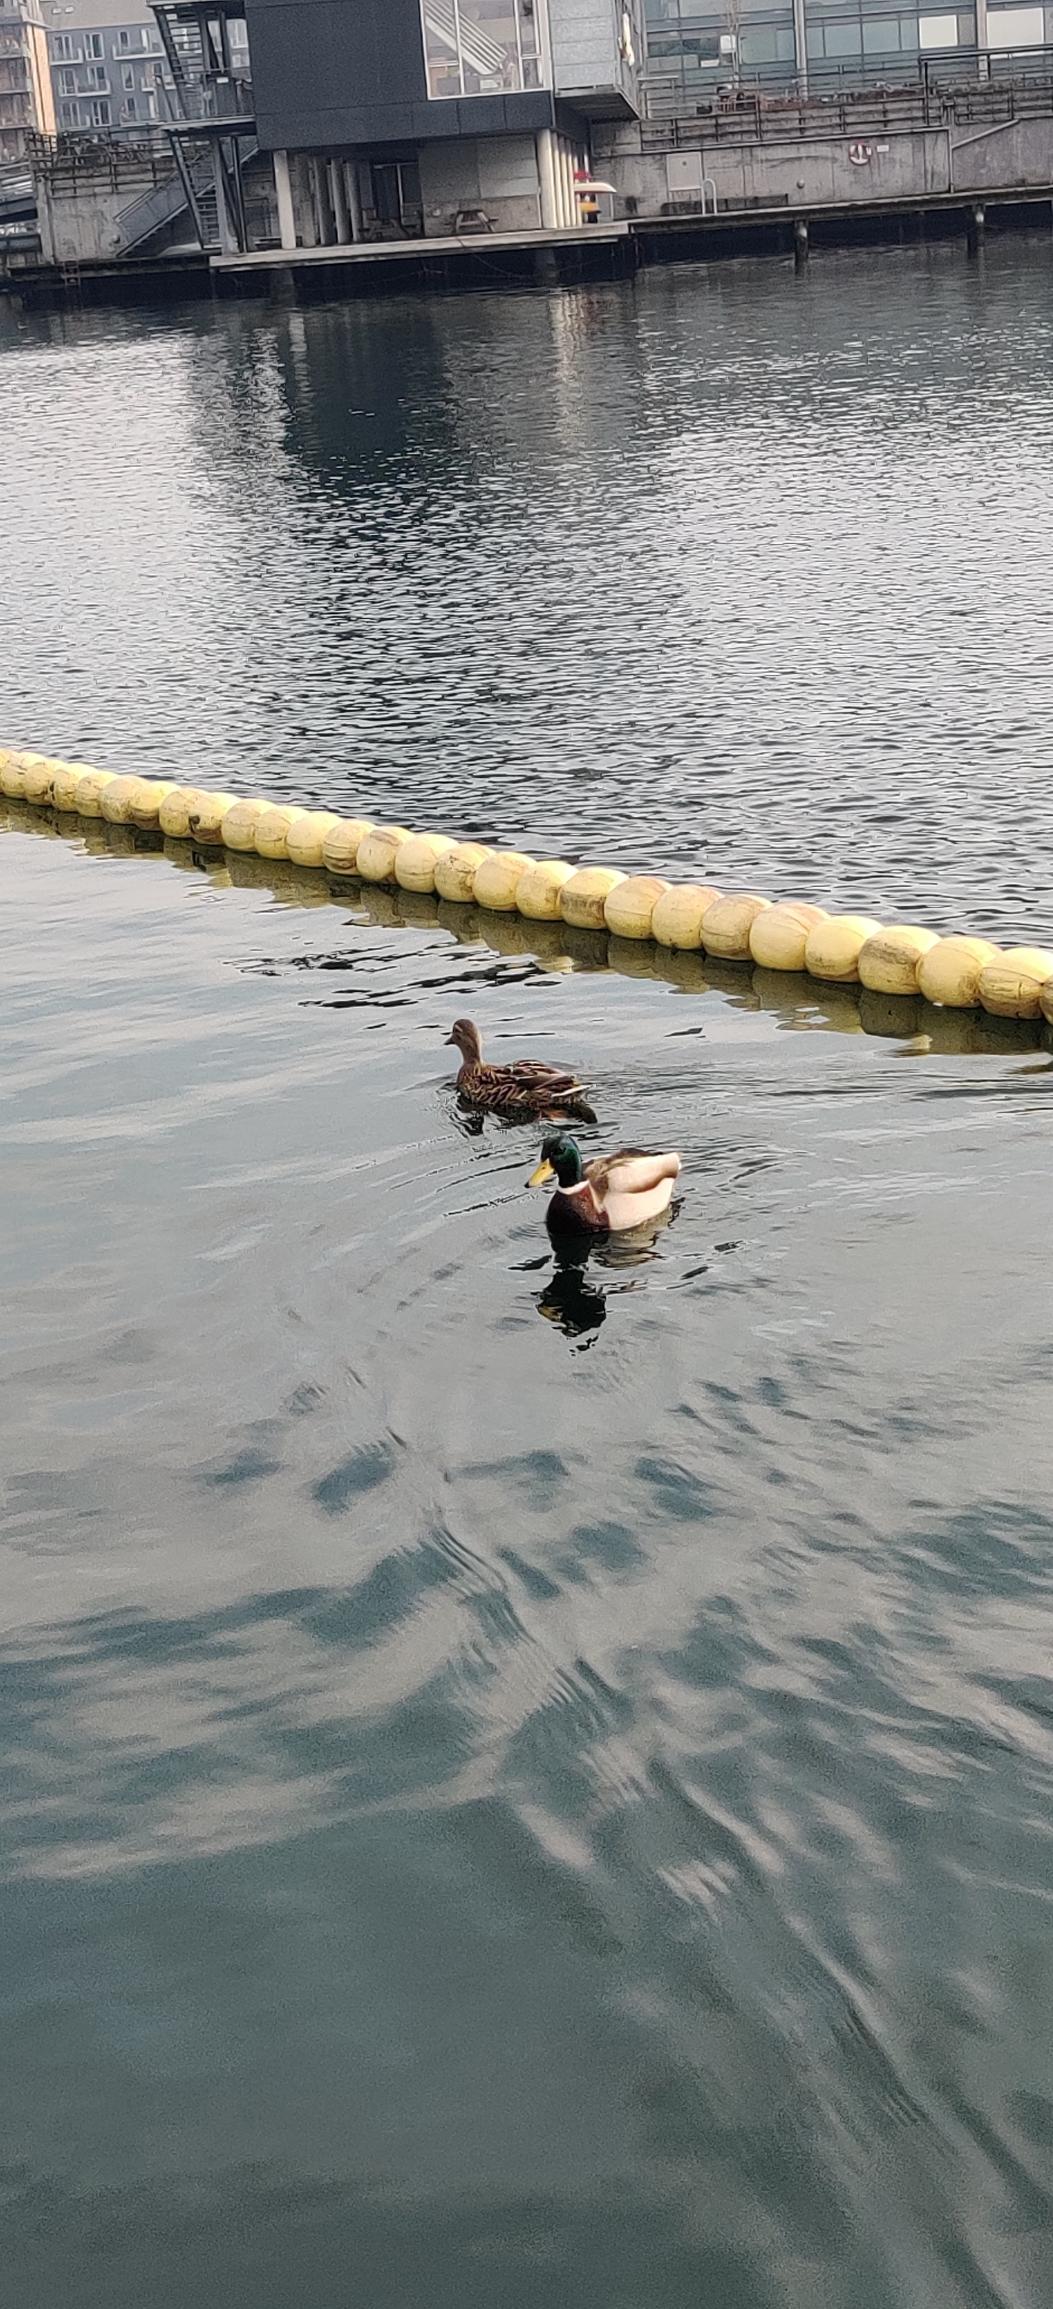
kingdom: Animalia
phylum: Chordata
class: Aves
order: Anseriformes
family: Anatidae
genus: Anas
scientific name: Anas platyrhynchos
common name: Gråand
